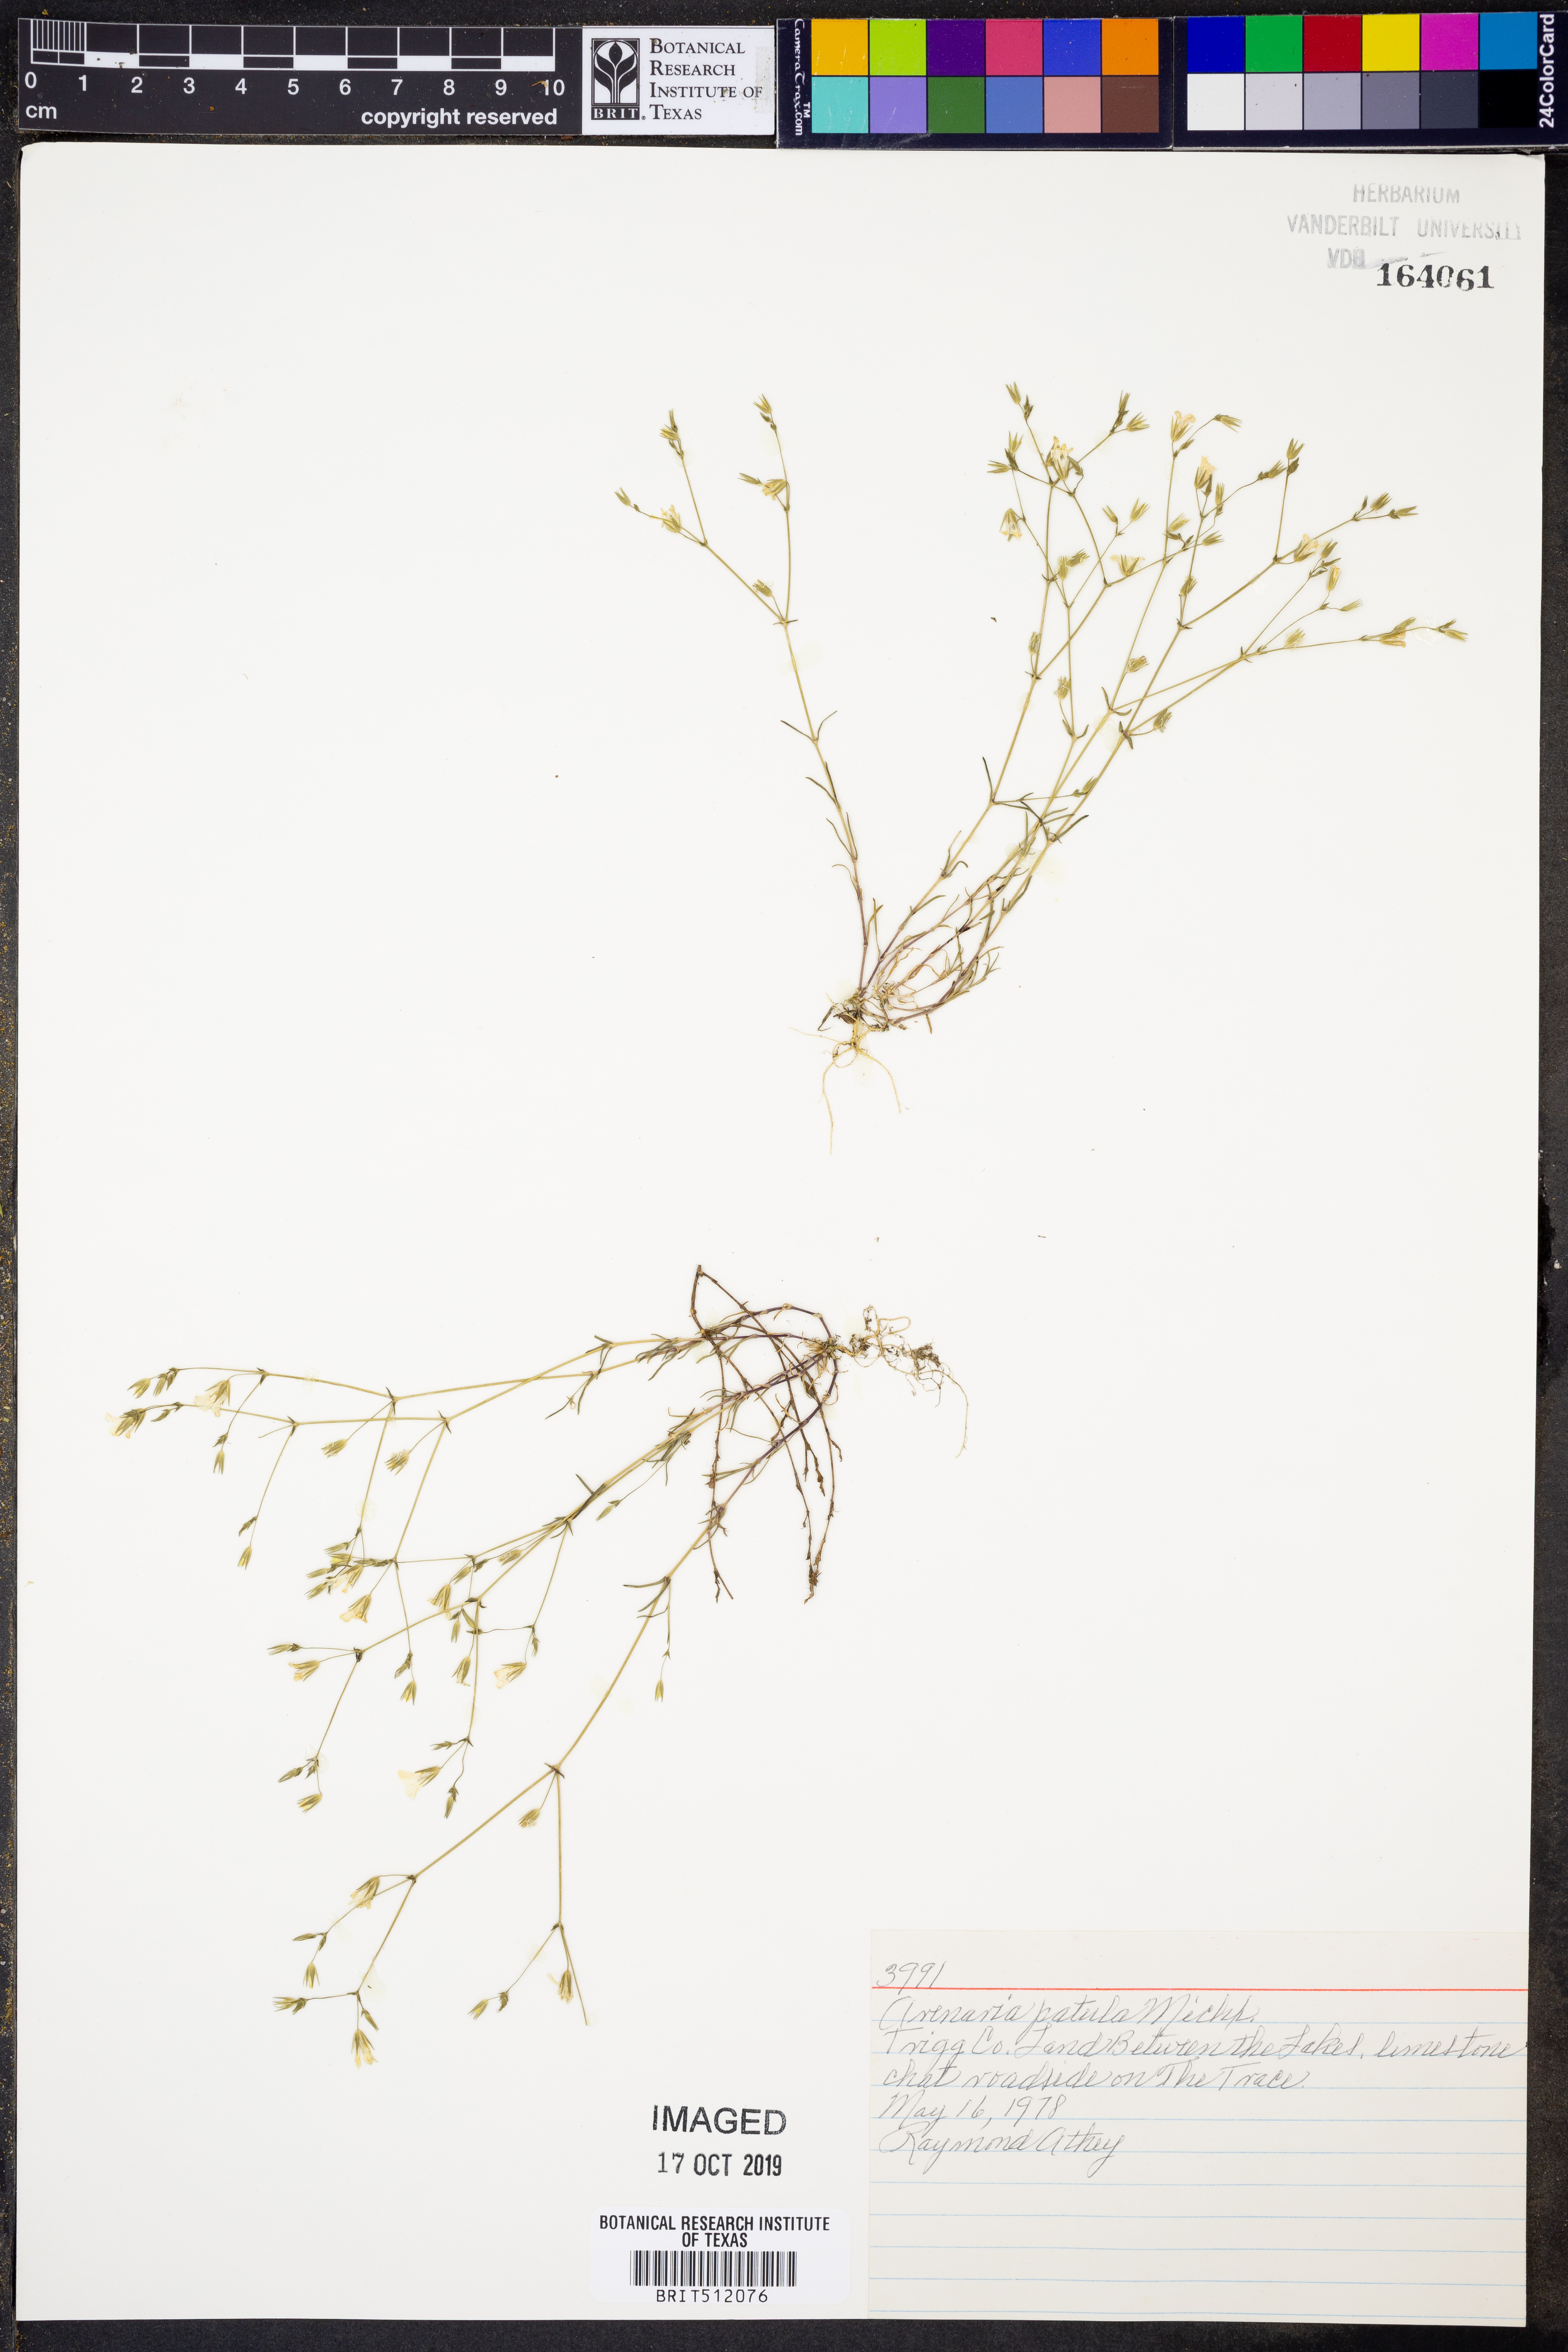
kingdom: Plantae
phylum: Tracheophyta
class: Magnoliopsida
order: Caryophyllales
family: Caryophyllaceae
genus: Mononeuria
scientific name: Mononeuria patula
